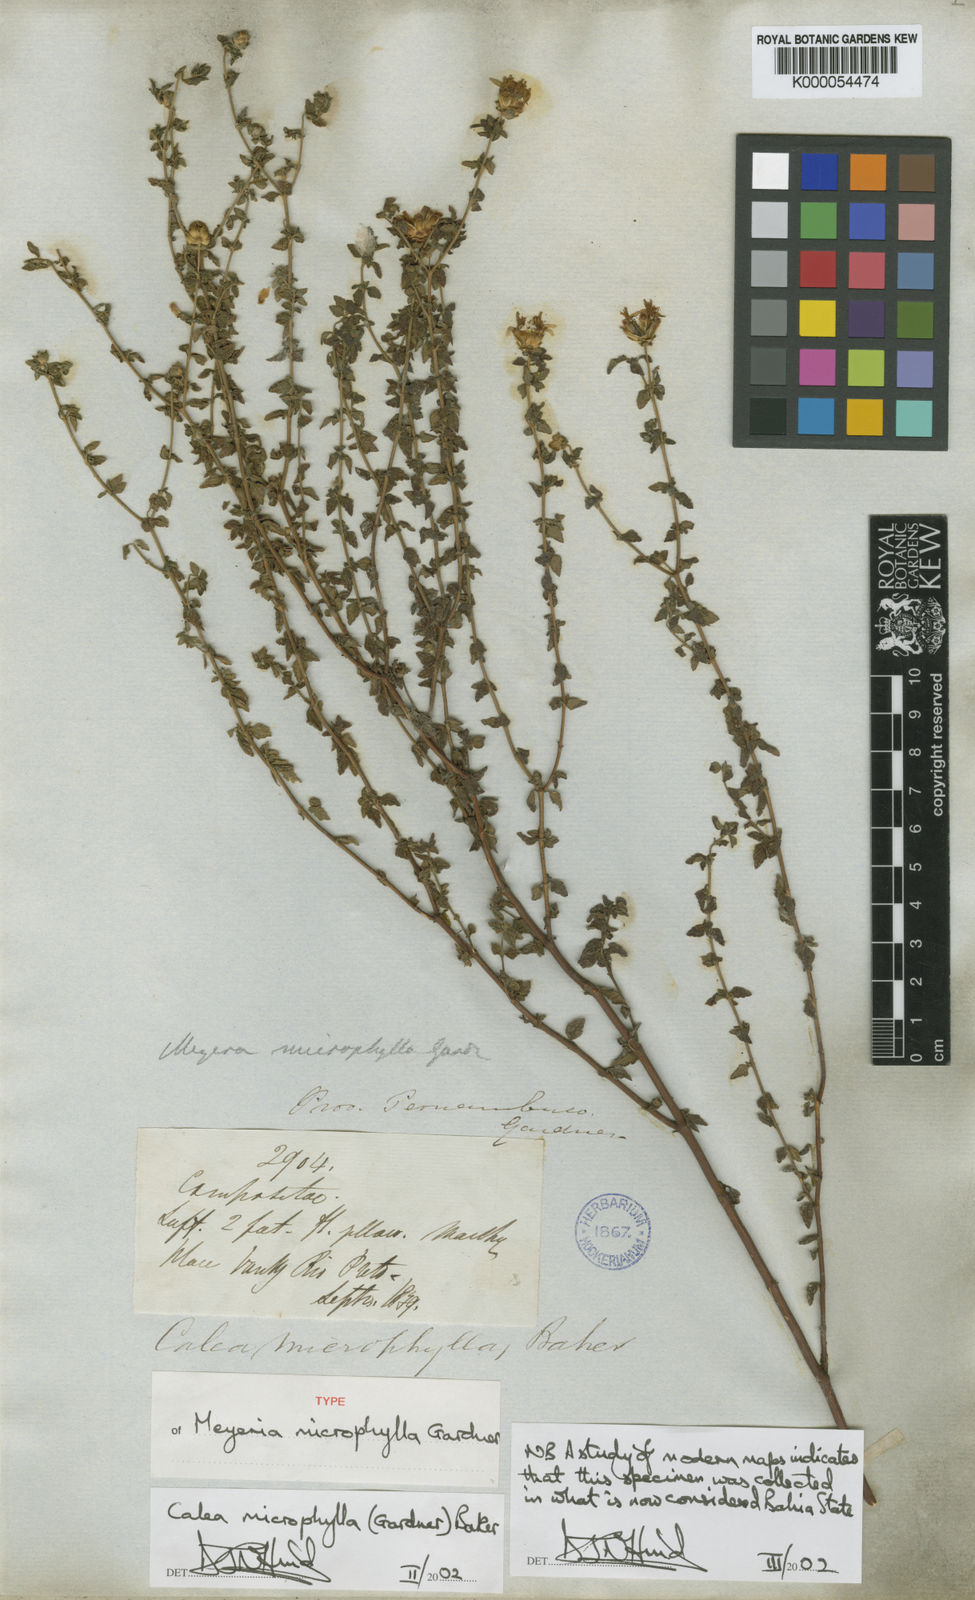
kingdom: Plantae
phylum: Tracheophyta
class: Magnoliopsida
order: Asterales
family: Asteraceae
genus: Calea
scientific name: Calea microphylla
